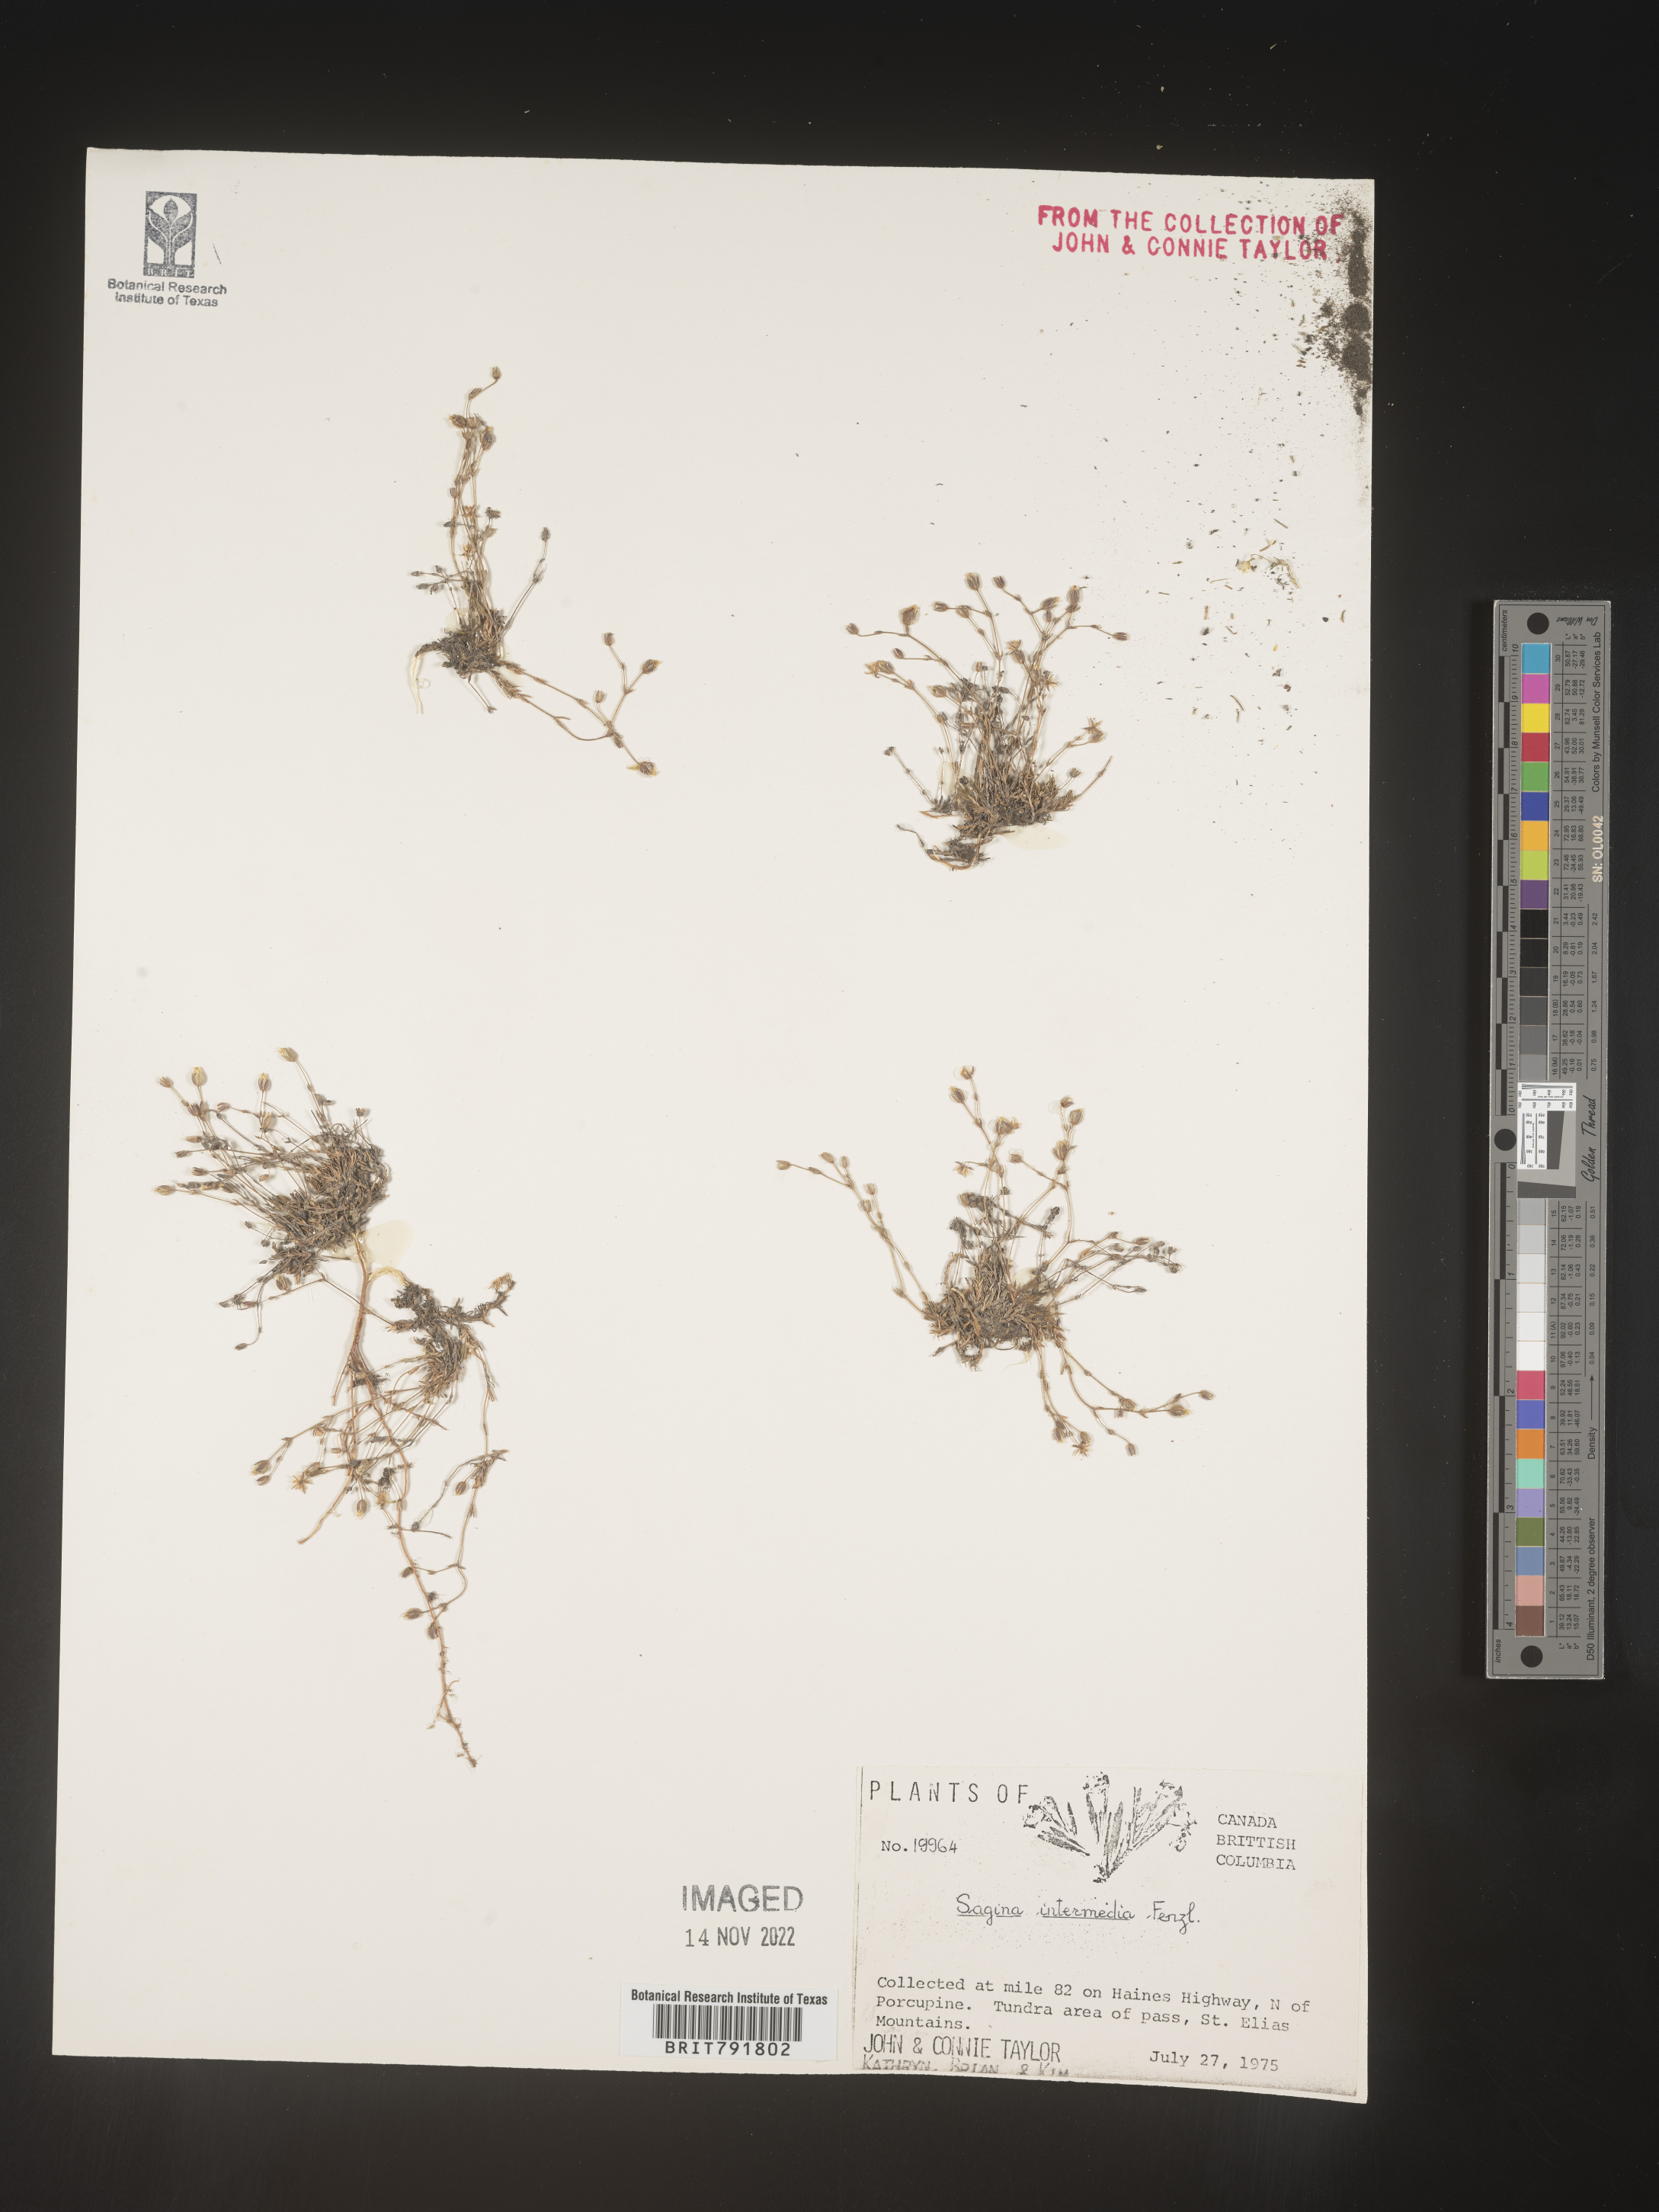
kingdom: Plantae
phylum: Tracheophyta
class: Magnoliopsida
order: Caryophyllales
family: Caryophyllaceae
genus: Sagina
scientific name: Sagina
